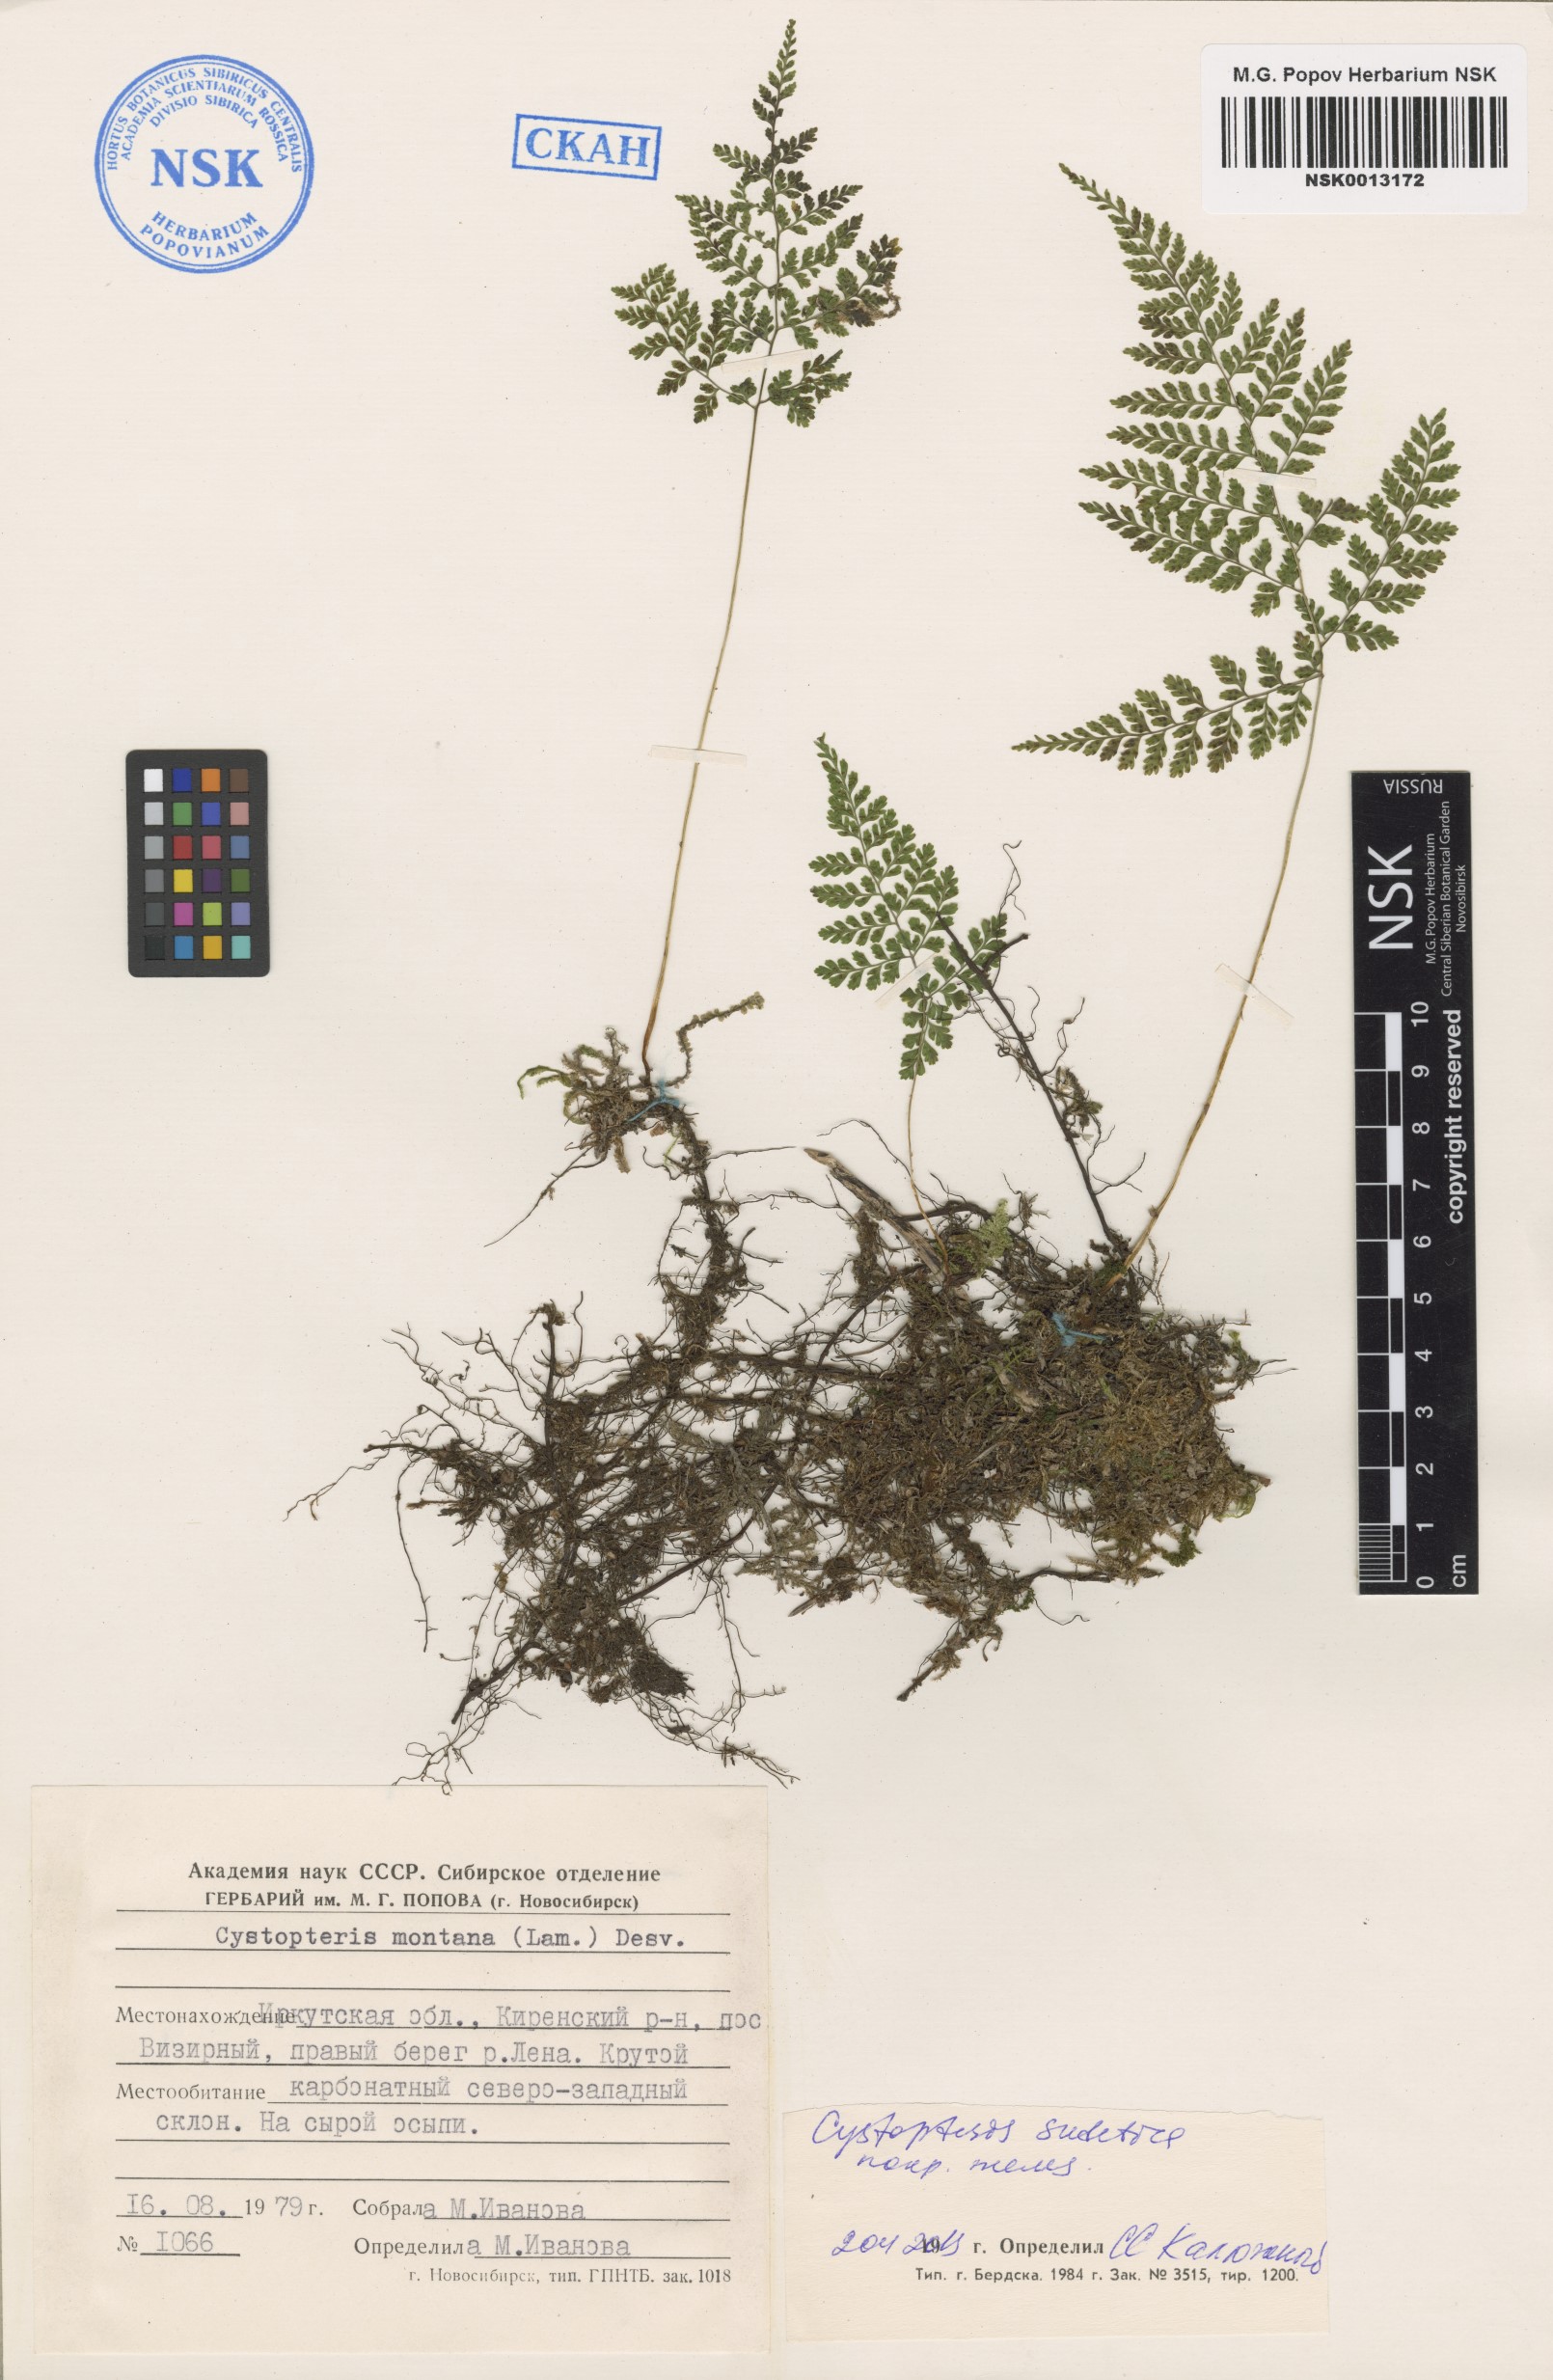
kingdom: Plantae
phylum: Tracheophyta
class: Polypodiopsida
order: Polypodiales
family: Cystopteridaceae
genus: Cystopteris
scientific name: Cystopteris sudetica
